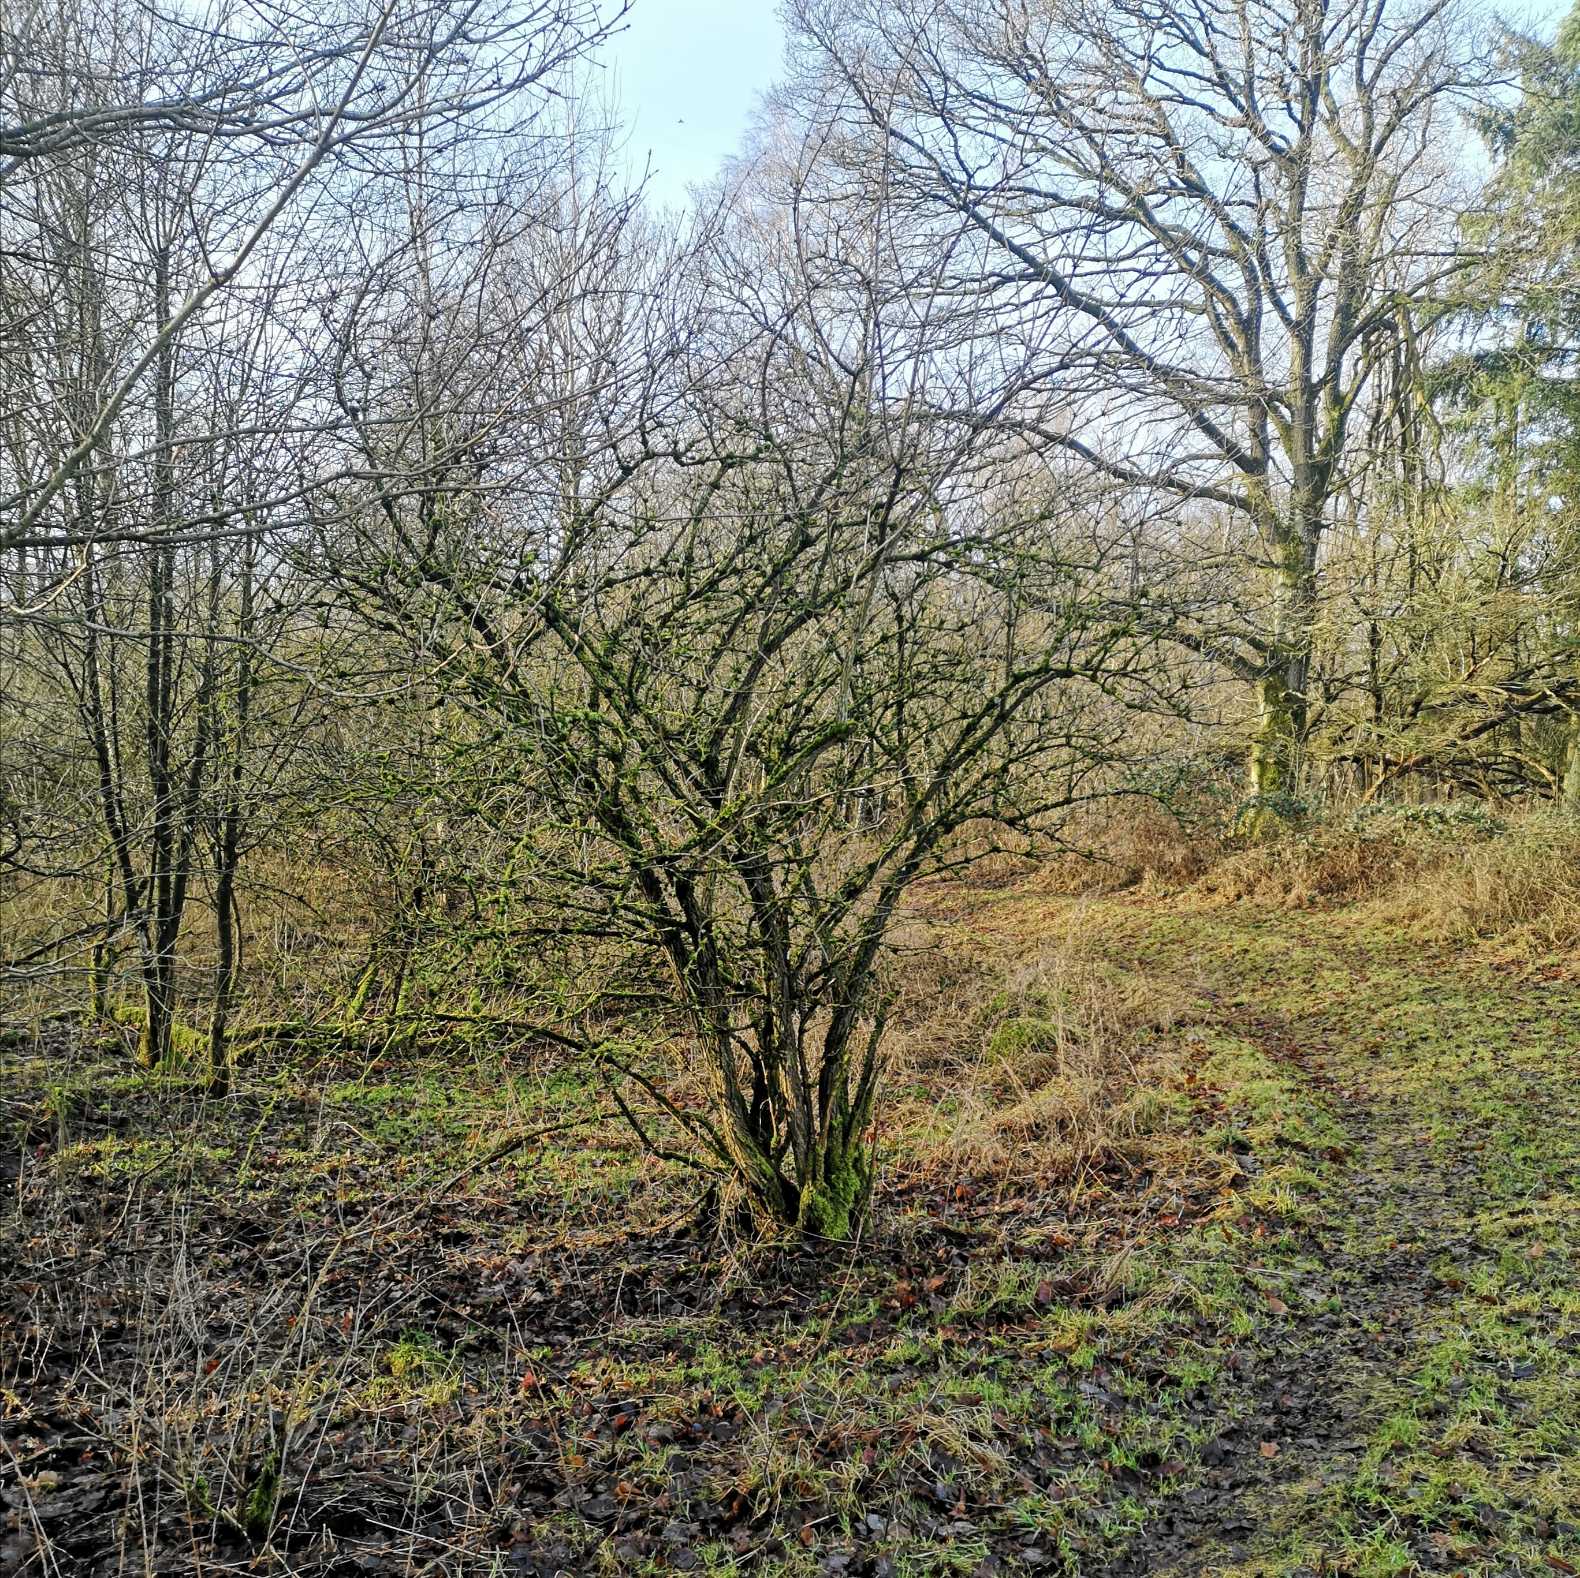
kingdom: Plantae
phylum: Tracheophyta
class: Magnoliopsida
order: Dipsacales
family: Viburnaceae
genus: Sambucus
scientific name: Sambucus nigra
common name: Almindelig hyld
